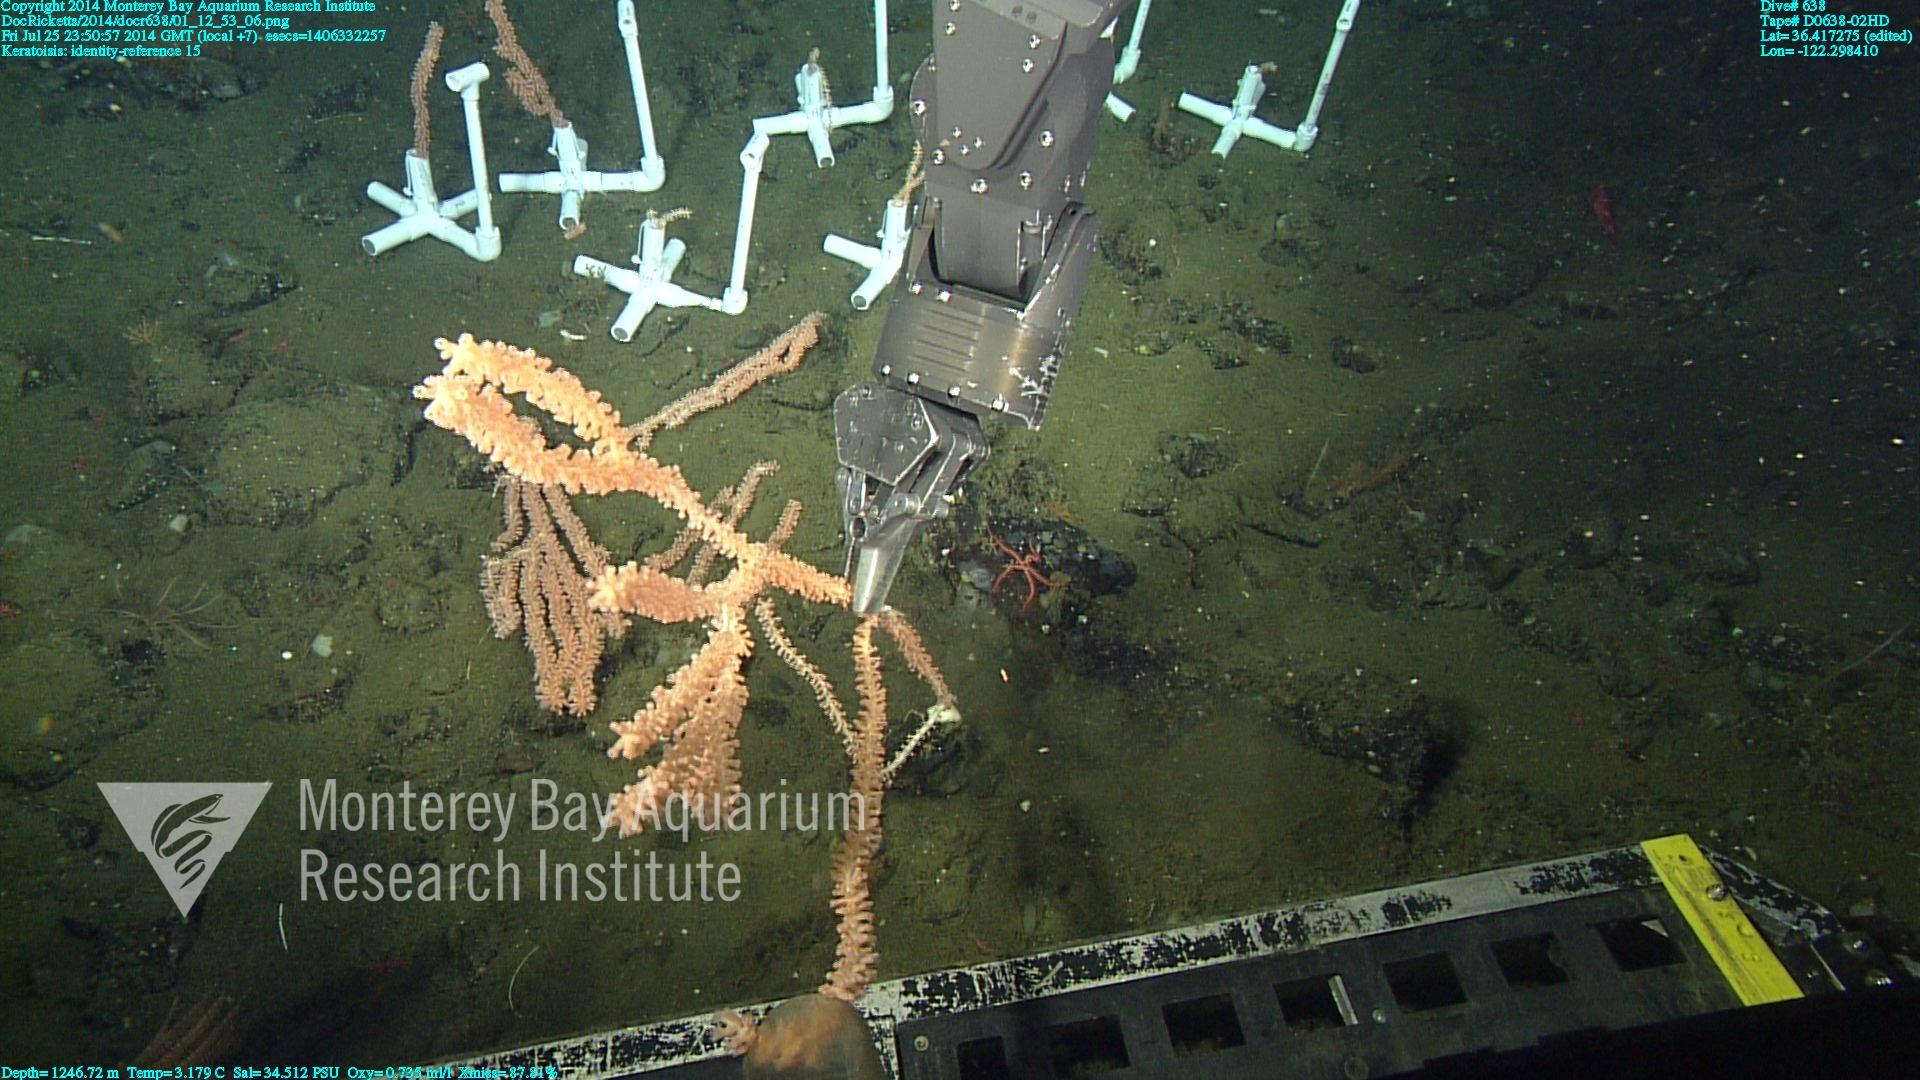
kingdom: Animalia
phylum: Cnidaria
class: Anthozoa
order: Scleralcyonacea
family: Keratoisididae
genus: Keratoisis
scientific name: Keratoisis
